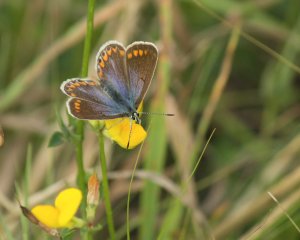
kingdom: Animalia
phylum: Arthropoda
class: Insecta
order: Lepidoptera
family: Lycaenidae
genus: Polyommatus
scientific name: Polyommatus icarus
